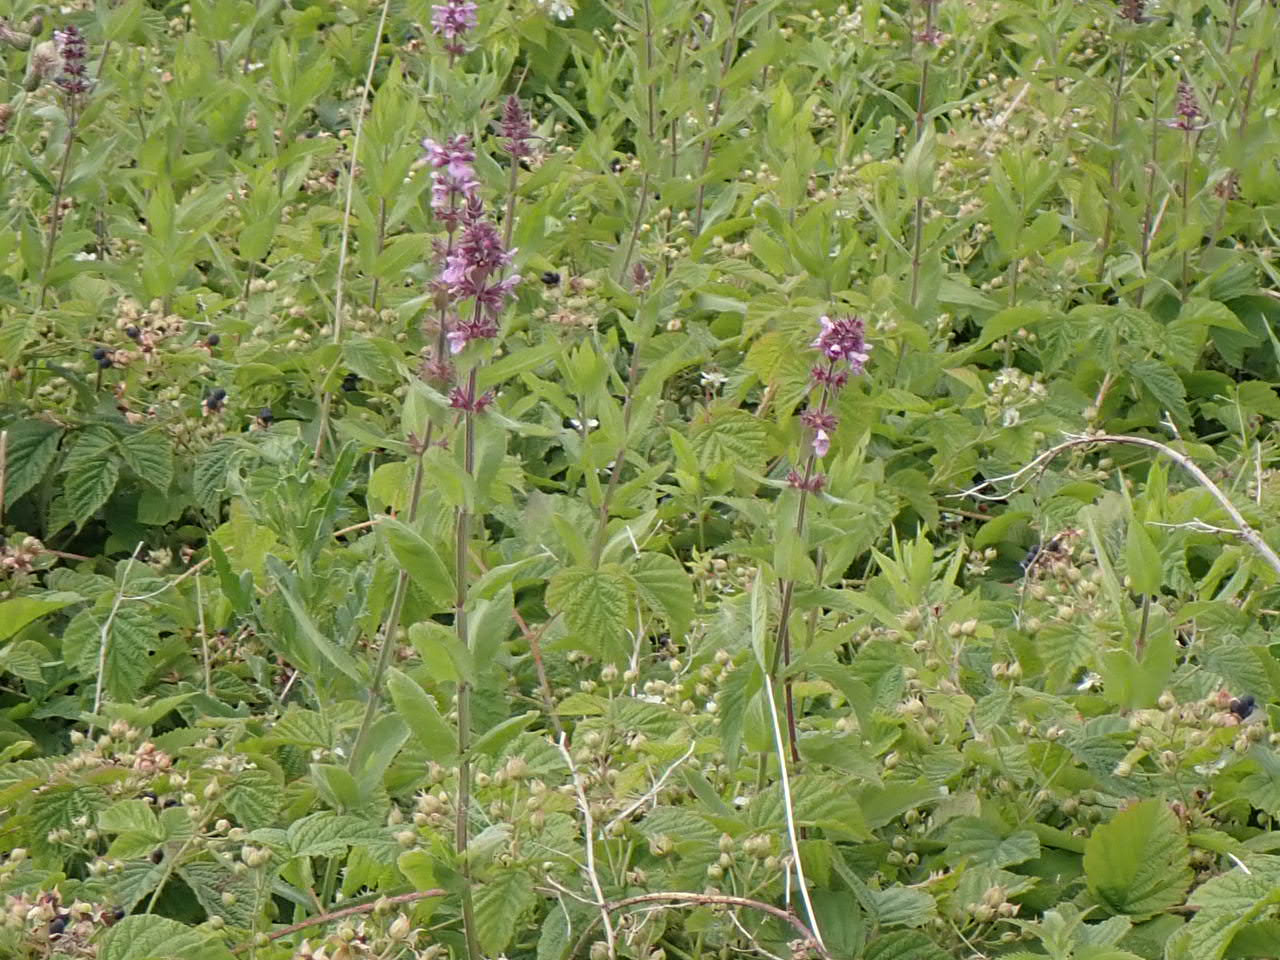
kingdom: Plantae
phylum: Tracheophyta
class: Magnoliopsida
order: Lamiales
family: Lamiaceae
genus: Stachys
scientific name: Stachys palustris
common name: Kær-galtetand
